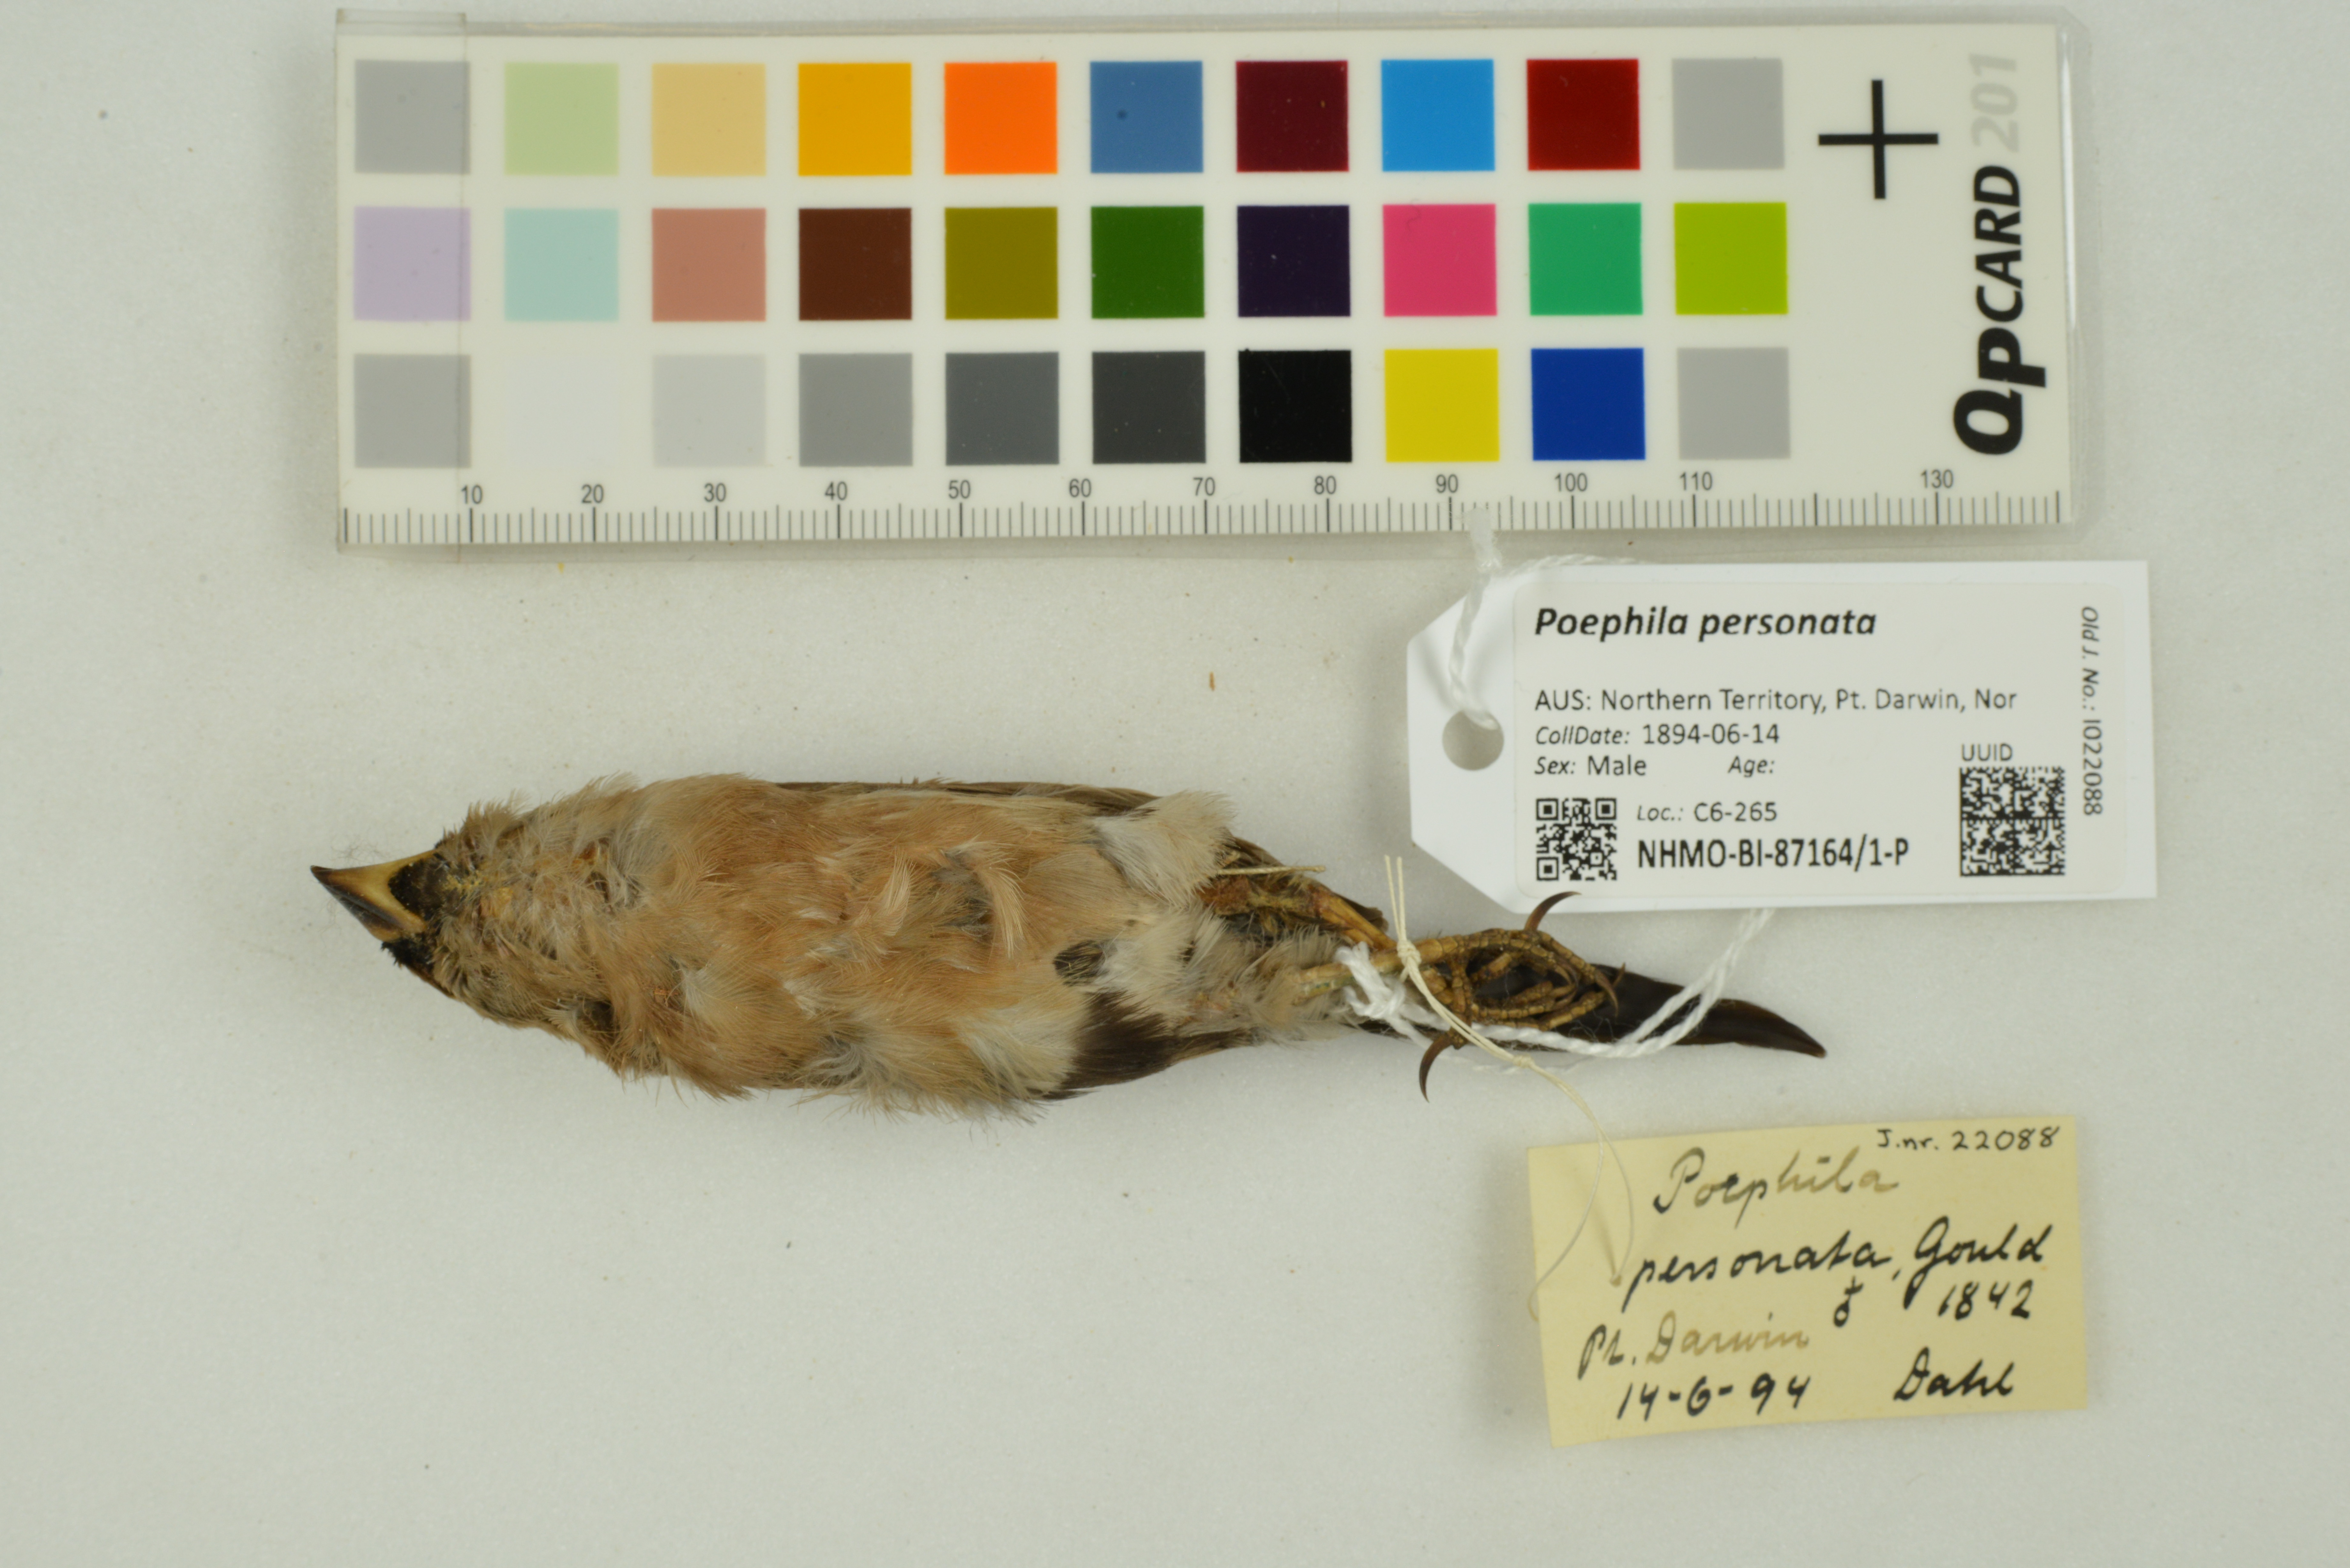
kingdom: Animalia
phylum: Chordata
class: Aves
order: Passeriformes
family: Estrildidae
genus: Poephila
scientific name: Poephila personata
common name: Masked finch
